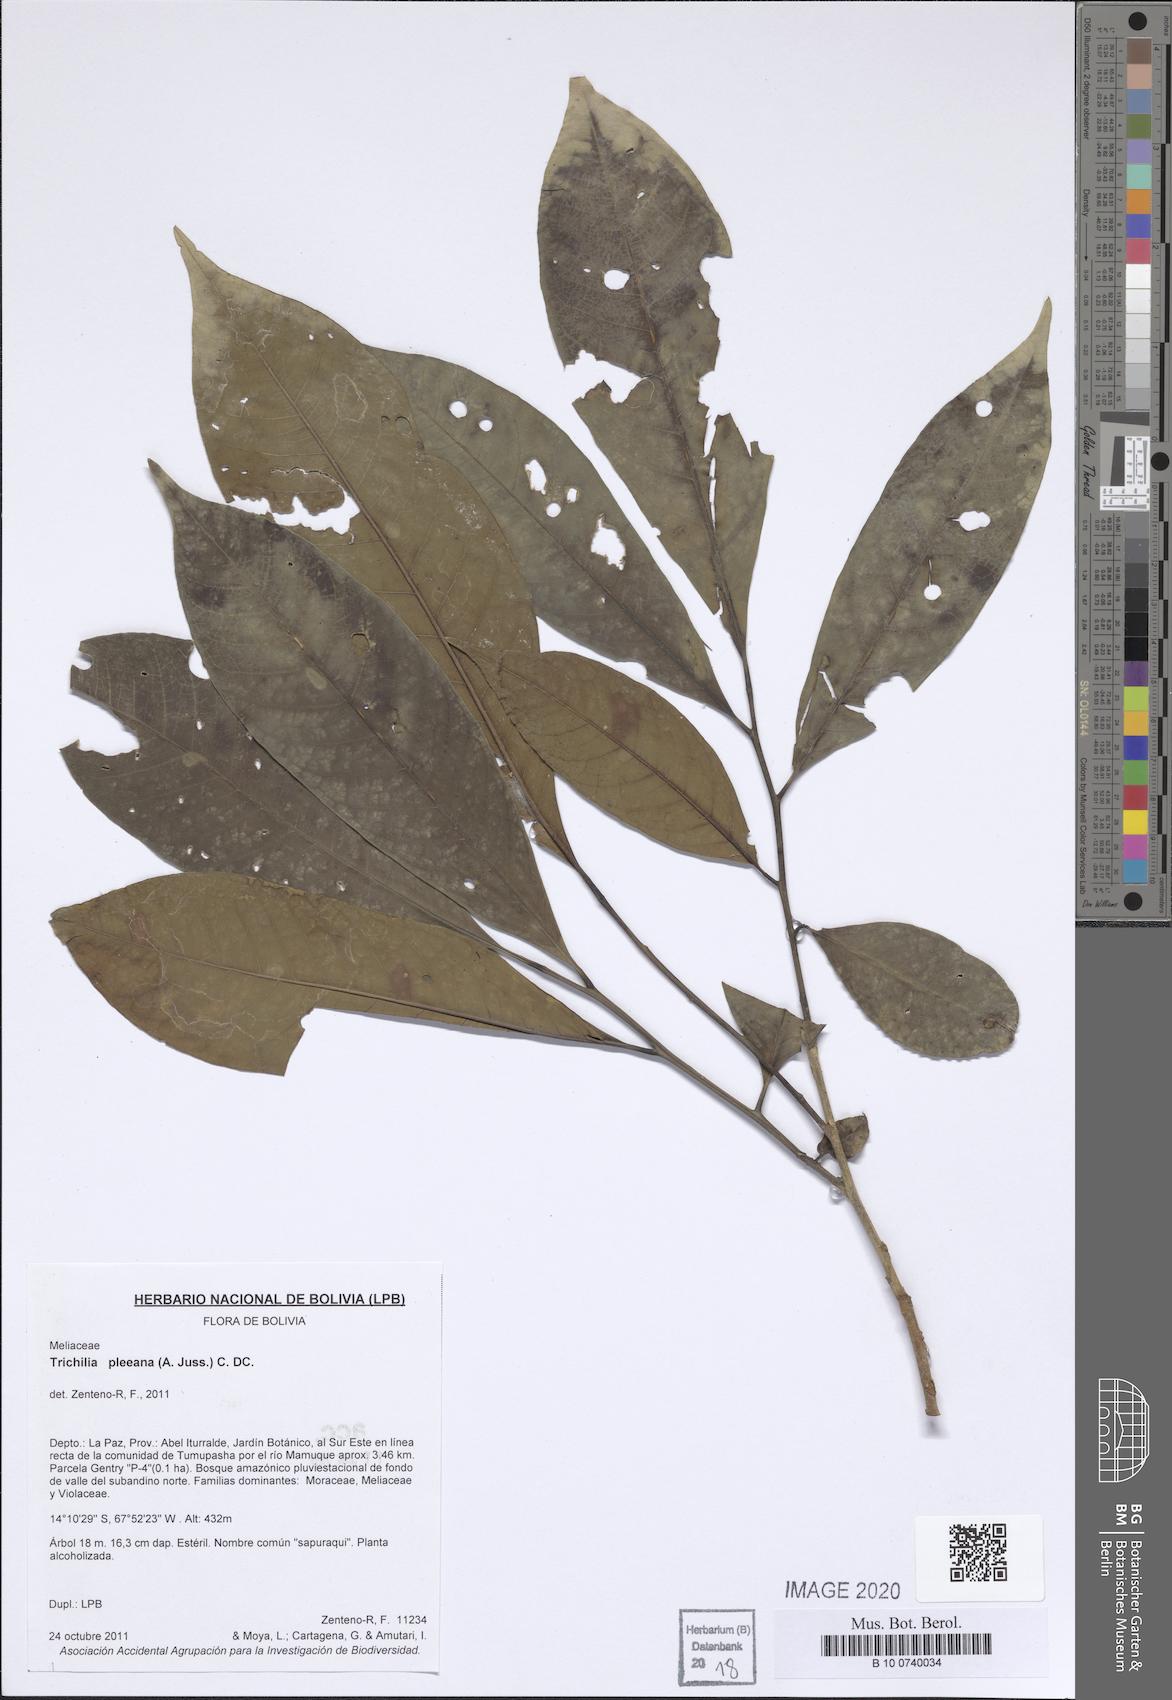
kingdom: Plantae
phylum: Tracheophyta
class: Magnoliopsida
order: Sapindales
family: Meliaceae
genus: Trichilia
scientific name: Trichilia pleeana
